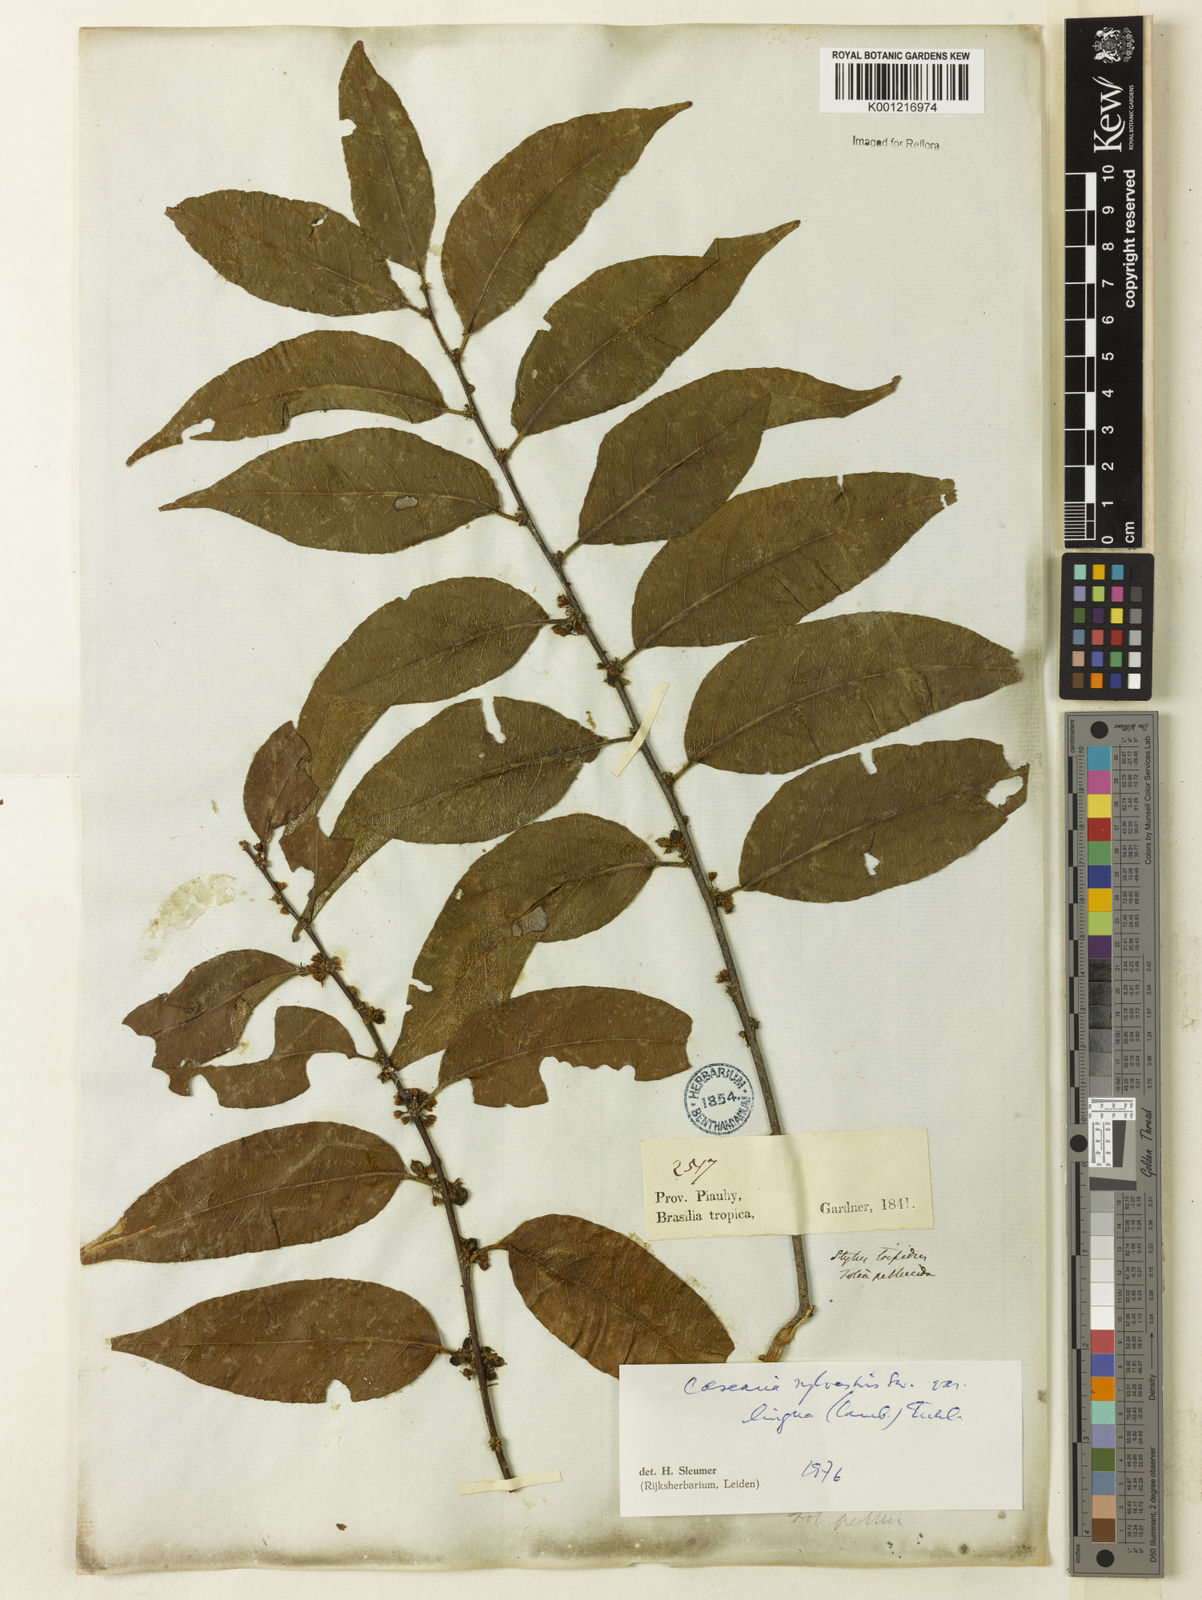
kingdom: Plantae
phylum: Tracheophyta
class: Magnoliopsida
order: Malpighiales
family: Salicaceae
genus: Casearia
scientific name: Casearia sylvestris
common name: Wild sage
